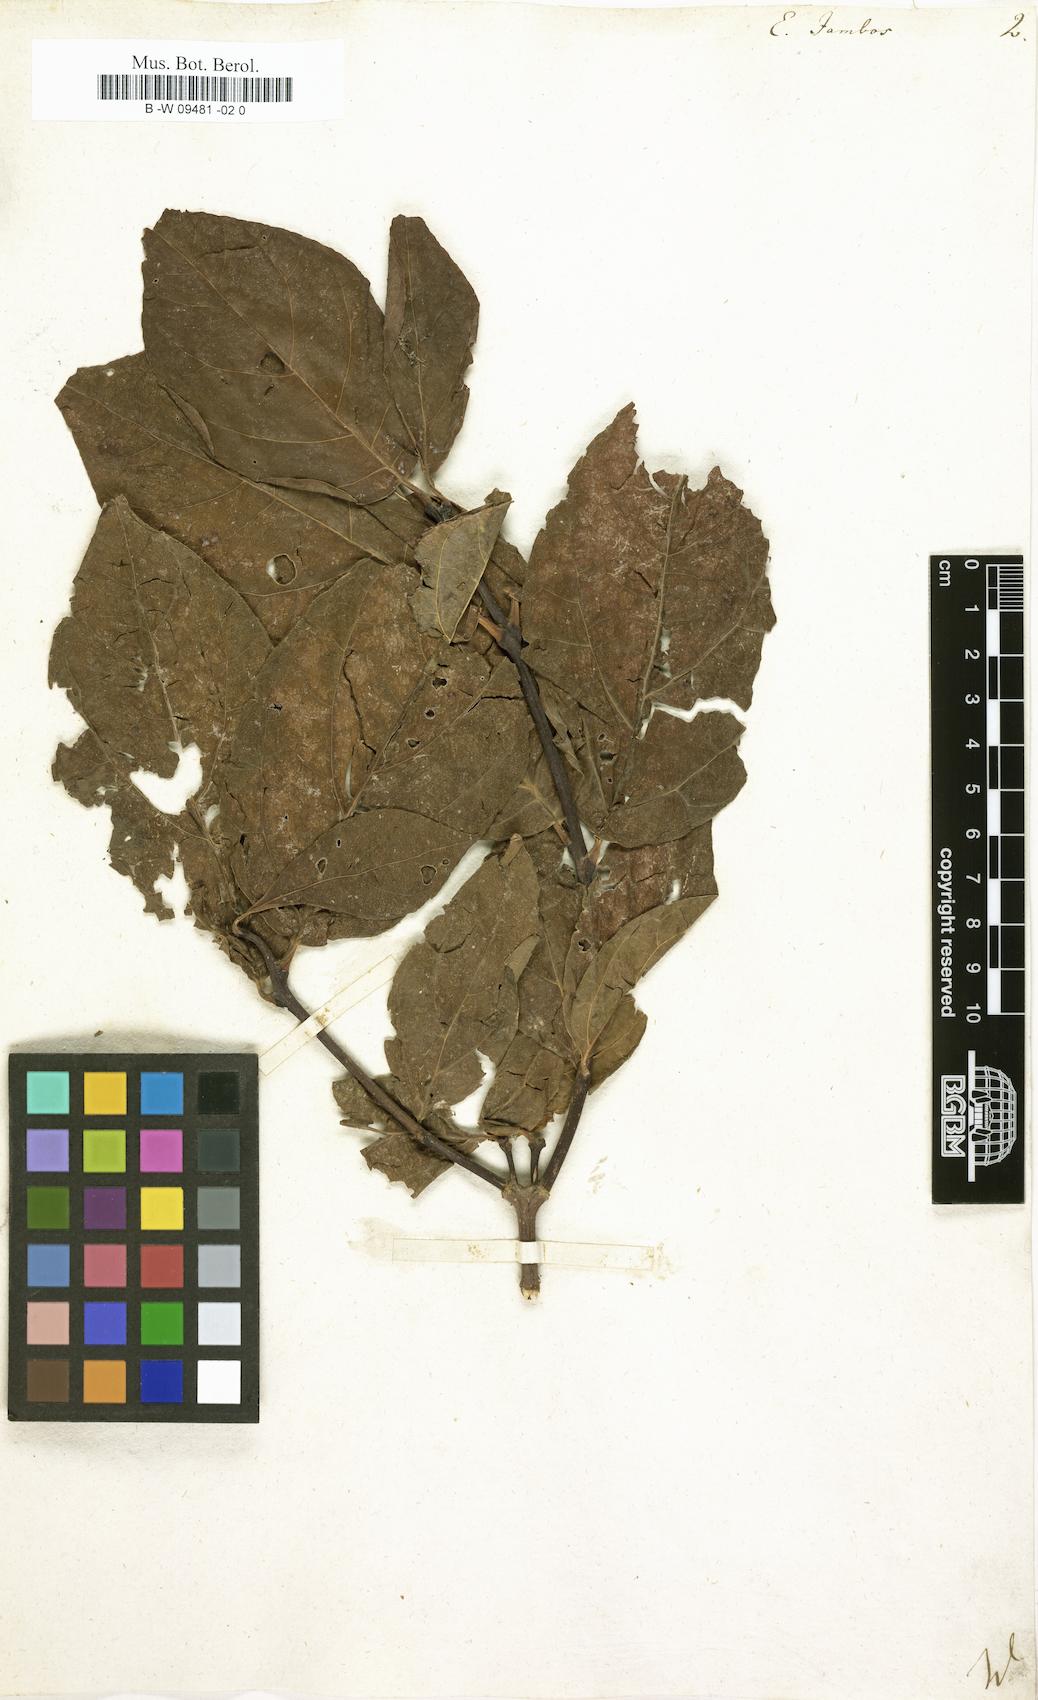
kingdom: Plantae
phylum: Tracheophyta
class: Magnoliopsida
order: Myrtales
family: Myrtaceae
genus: Syzygium
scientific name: Syzygium jambos
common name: Malabar plum
